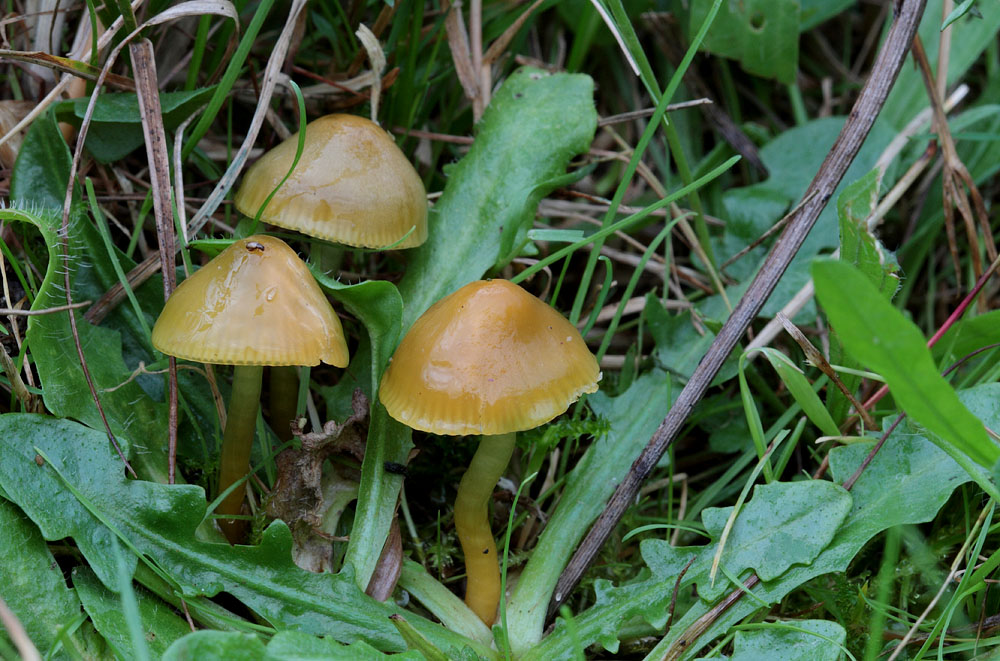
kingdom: Fungi
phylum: Basidiomycota
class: Agaricomycetes
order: Agaricales
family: Hygrophoraceae
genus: Gliophorus
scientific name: Gliophorus psittacinus
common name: papegøje-vokshat
